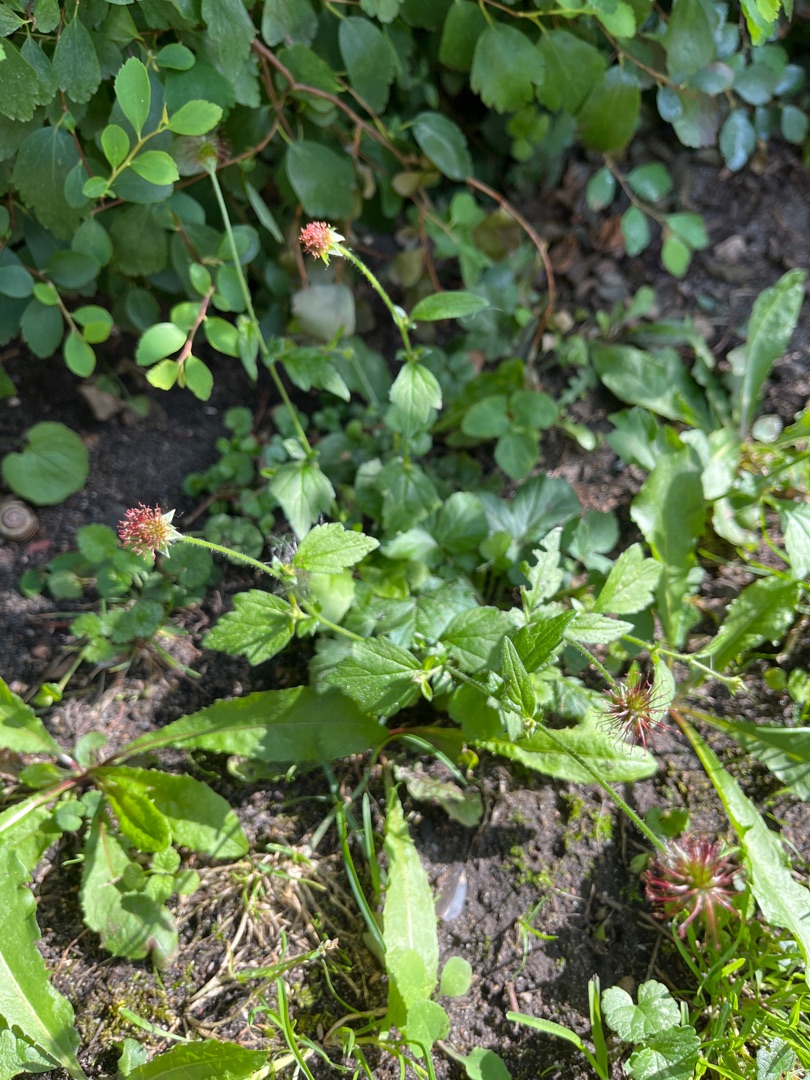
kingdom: Plantae
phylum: Tracheophyta
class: Magnoliopsida
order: Rosales
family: Rosaceae
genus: Geum
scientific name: Geum urbanum
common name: Feber-nellikerod
